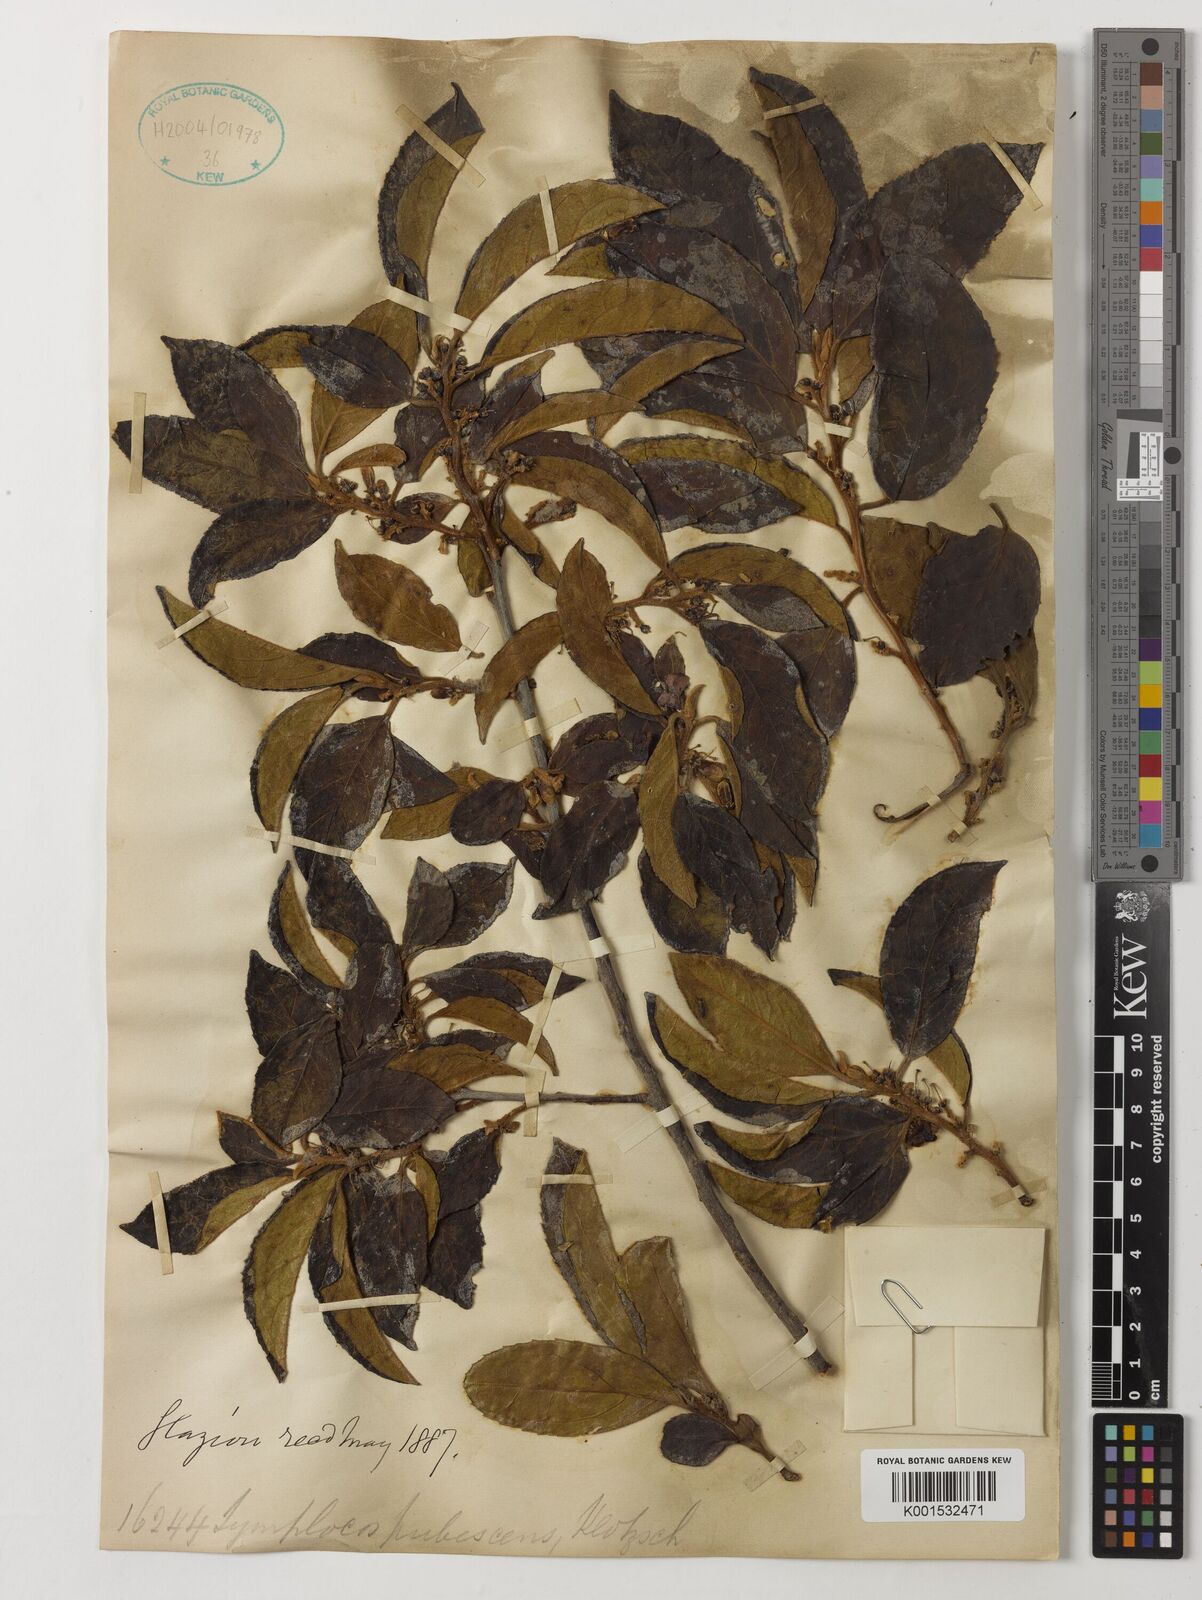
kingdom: Plantae
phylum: Tracheophyta
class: Magnoliopsida
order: Ericales
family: Symplocaceae
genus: Symplocos
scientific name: Symplocos pubescens
